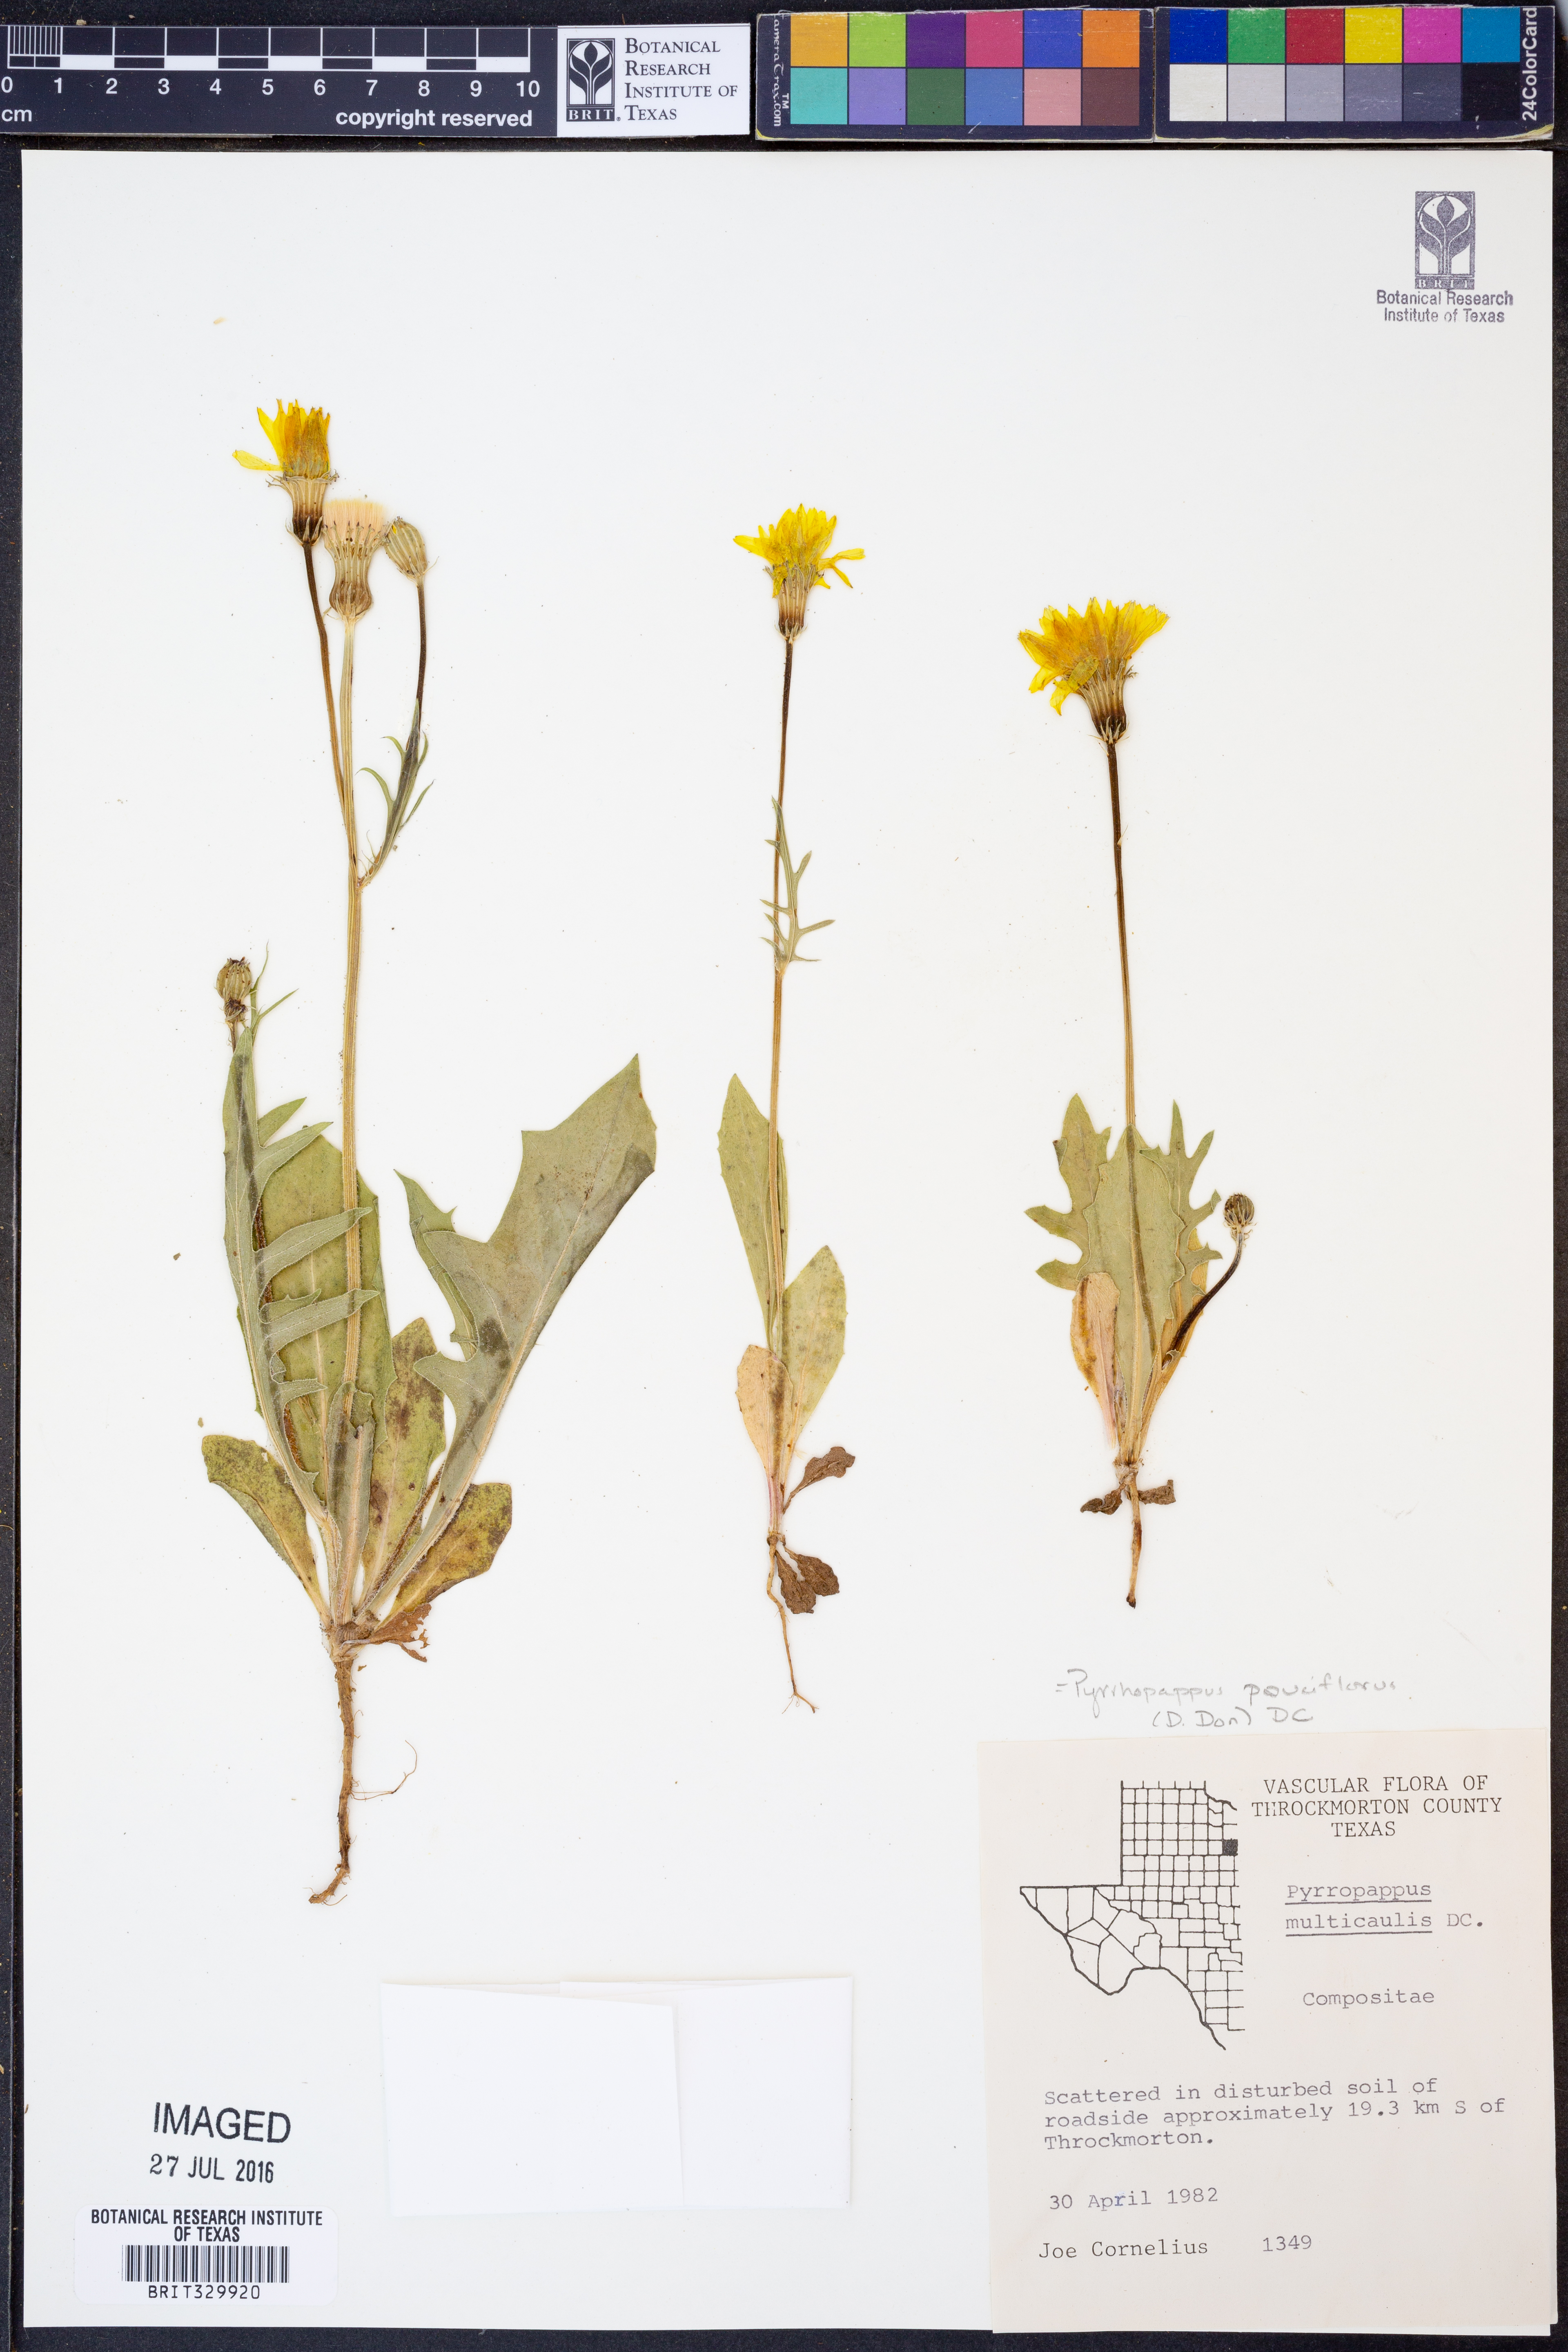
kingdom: Plantae
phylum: Tracheophyta
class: Magnoliopsida
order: Asterales
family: Asteraceae
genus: Pyrrhopappus
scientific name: Pyrrhopappus pauciflorus
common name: Texas false dandelion
